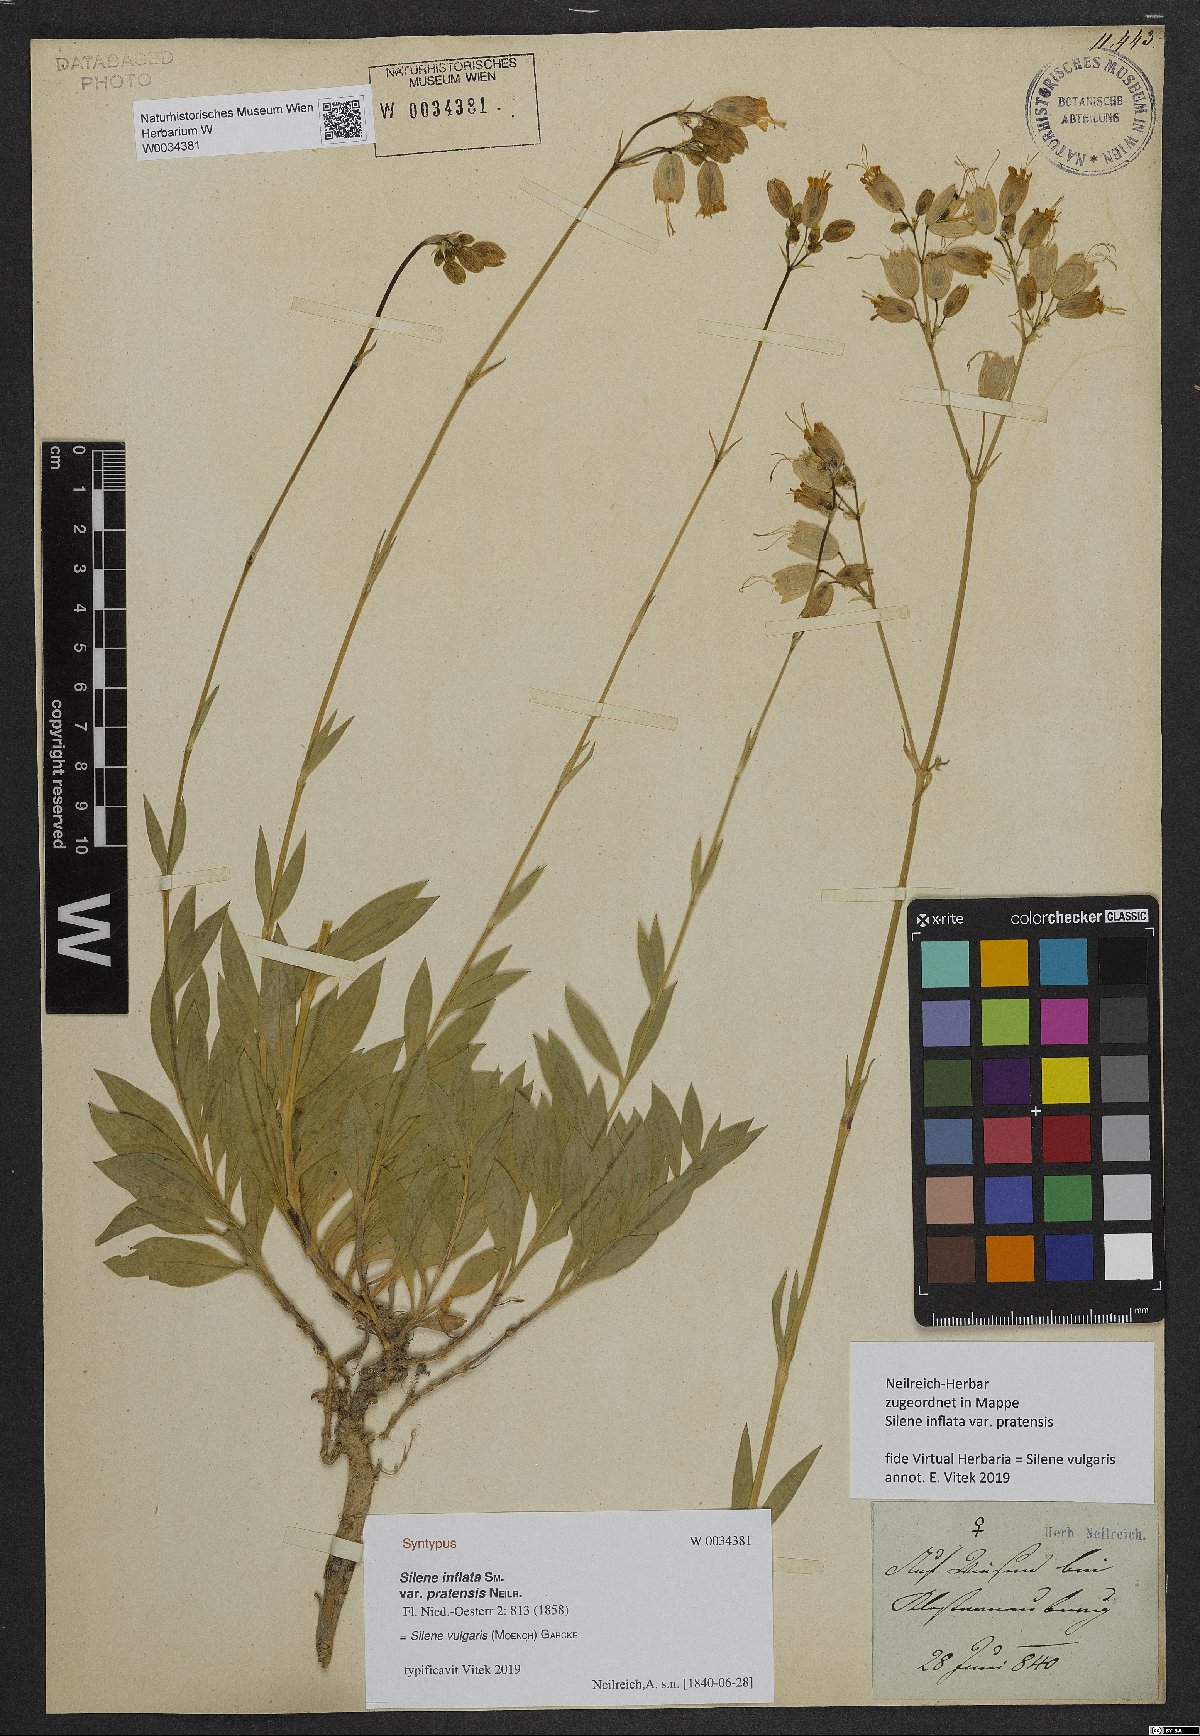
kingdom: Plantae
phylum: Tracheophyta
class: Magnoliopsida
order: Caryophyllales
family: Caryophyllaceae
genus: Silene
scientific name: Silene vulgaris
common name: Bladder campion
